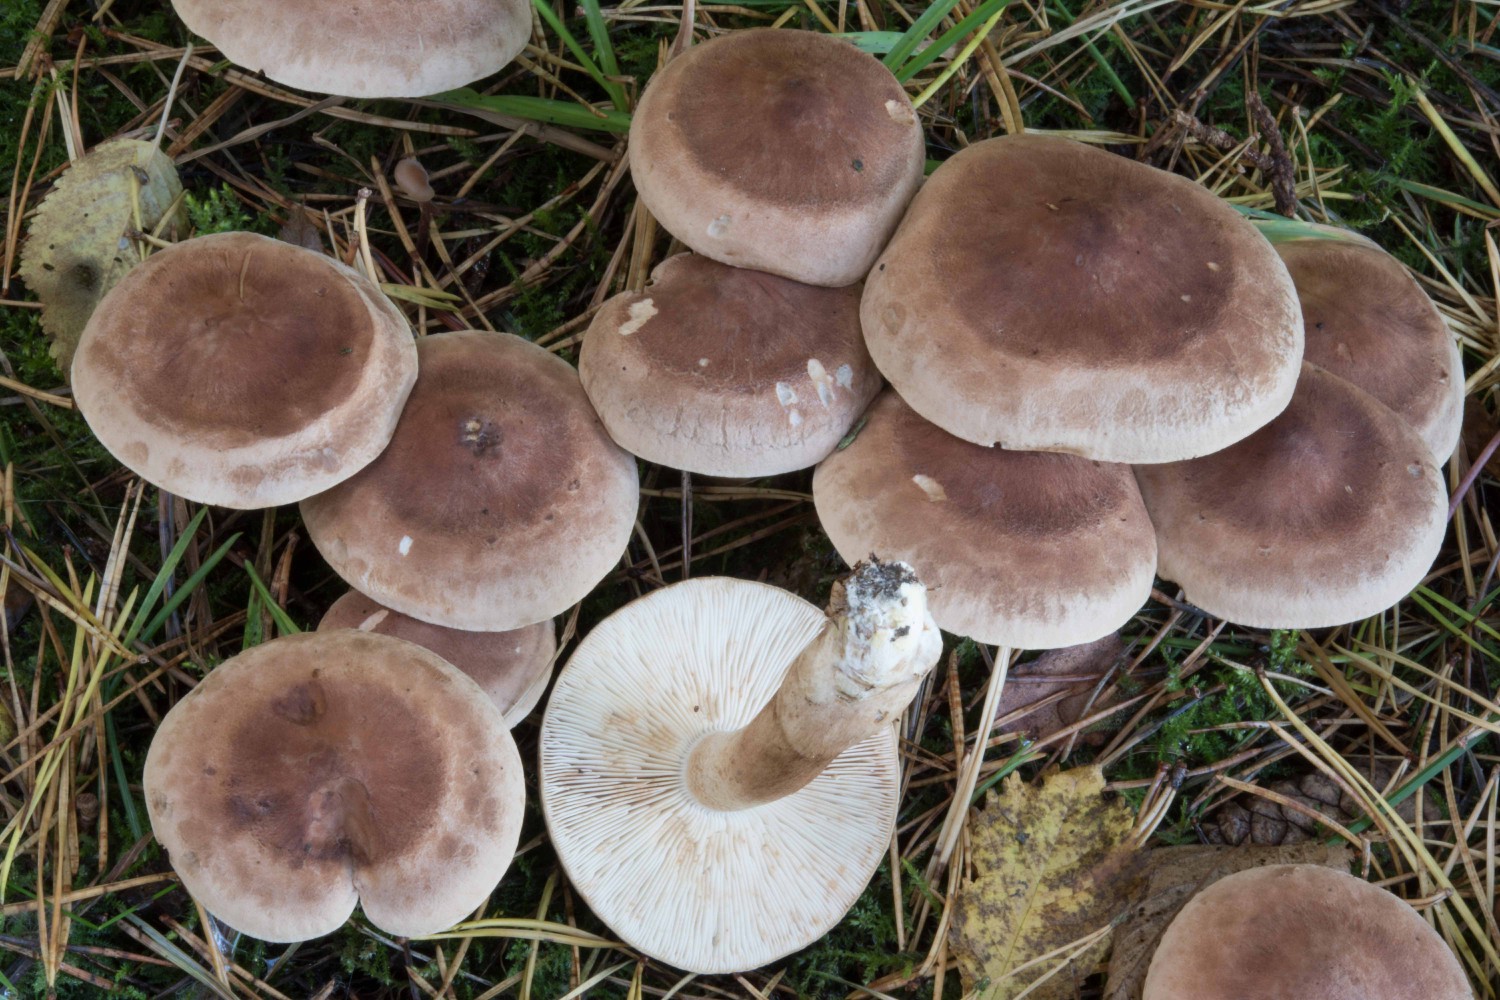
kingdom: Fungi
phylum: Basidiomycota
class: Agaricomycetes
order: Agaricales
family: Tricholomataceae
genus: Tricholoma
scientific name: Tricholoma imbricatum
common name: skællet ridderhat
